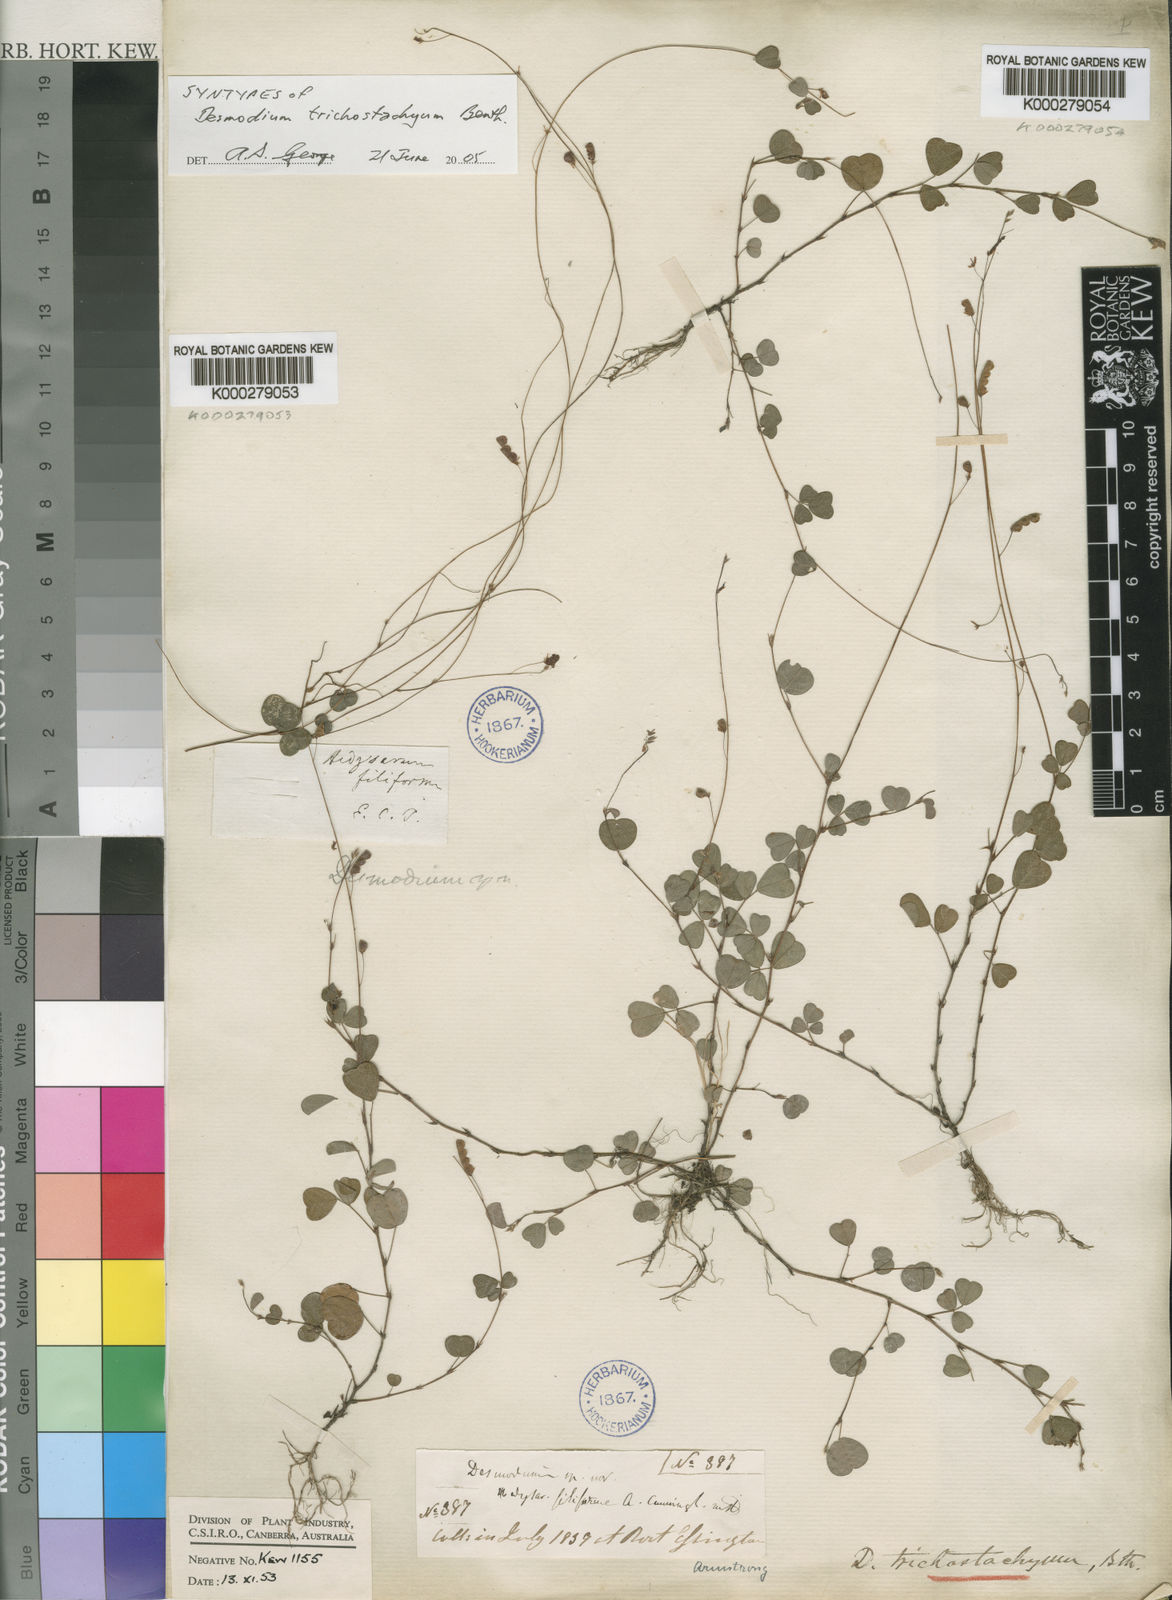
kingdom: Plantae
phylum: Tracheophyta
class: Magnoliopsida
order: Fabales
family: Fabaceae
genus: Grona
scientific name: Grona trichostachya
